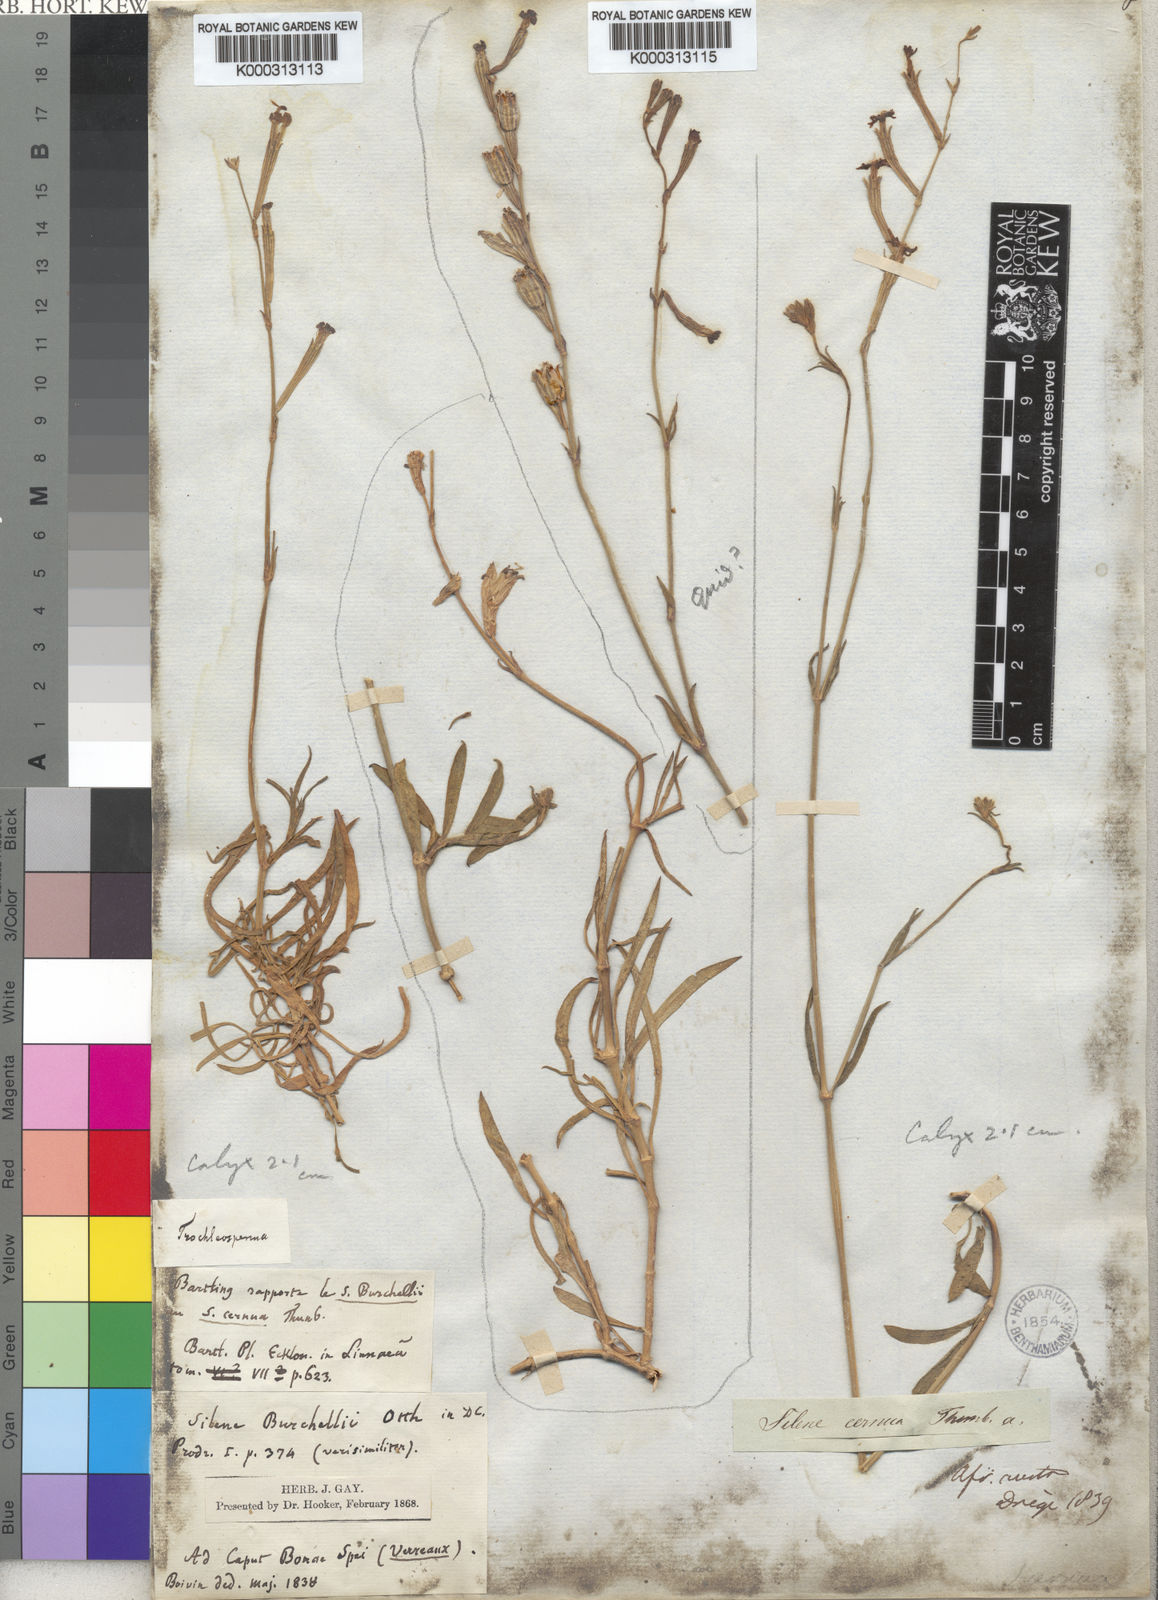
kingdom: Plantae
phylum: Tracheophyta
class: Magnoliopsida
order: Caryophyllales
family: Caryophyllaceae
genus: Silene
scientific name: Silene burchellii
